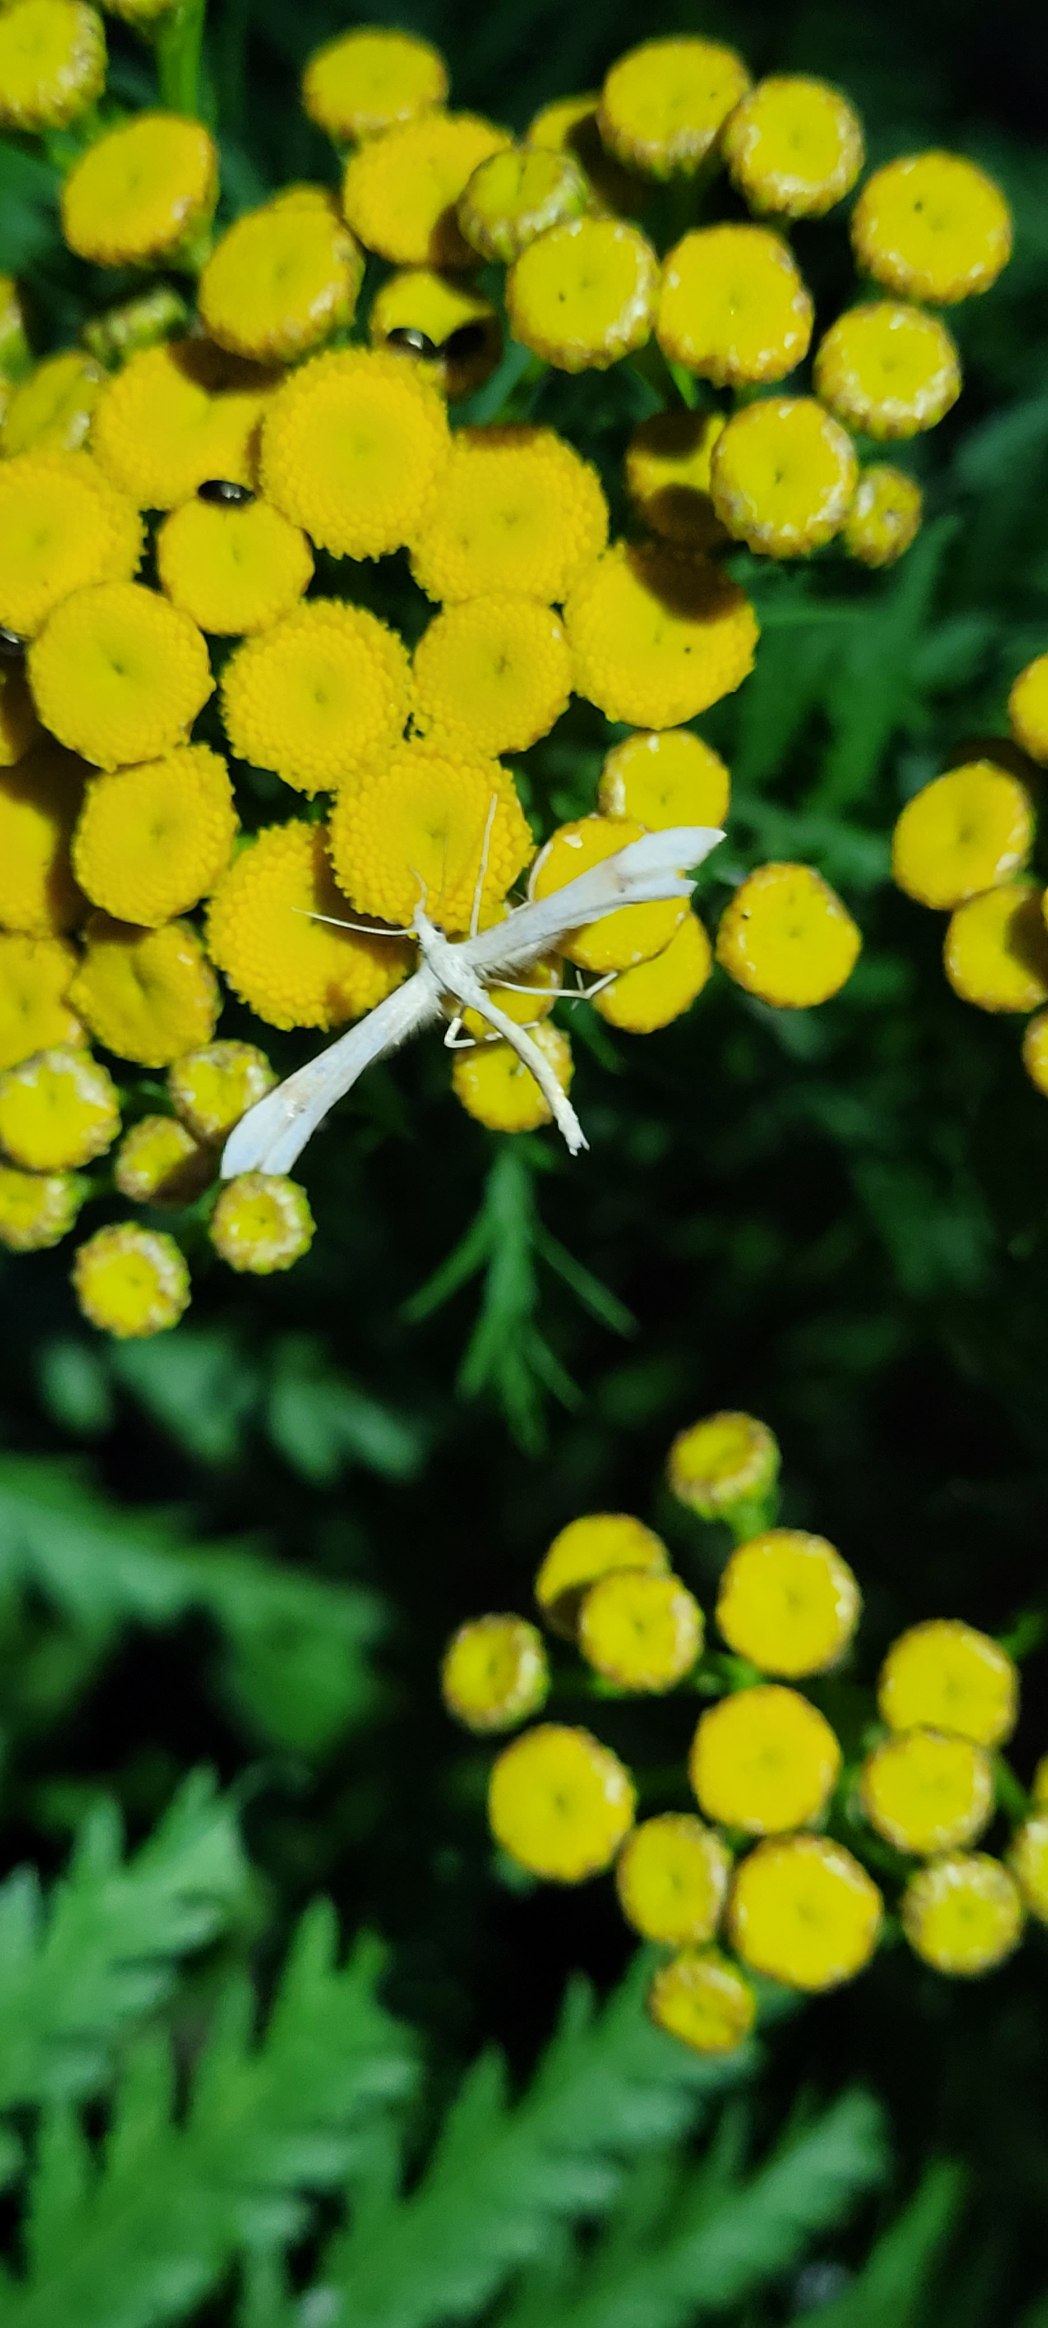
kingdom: Animalia
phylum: Arthropoda
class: Insecta
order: Lepidoptera
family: Pterophoridae
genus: Gillmeria
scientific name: Gillmeria ochrodactyla
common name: Rejnfanfjermøl
